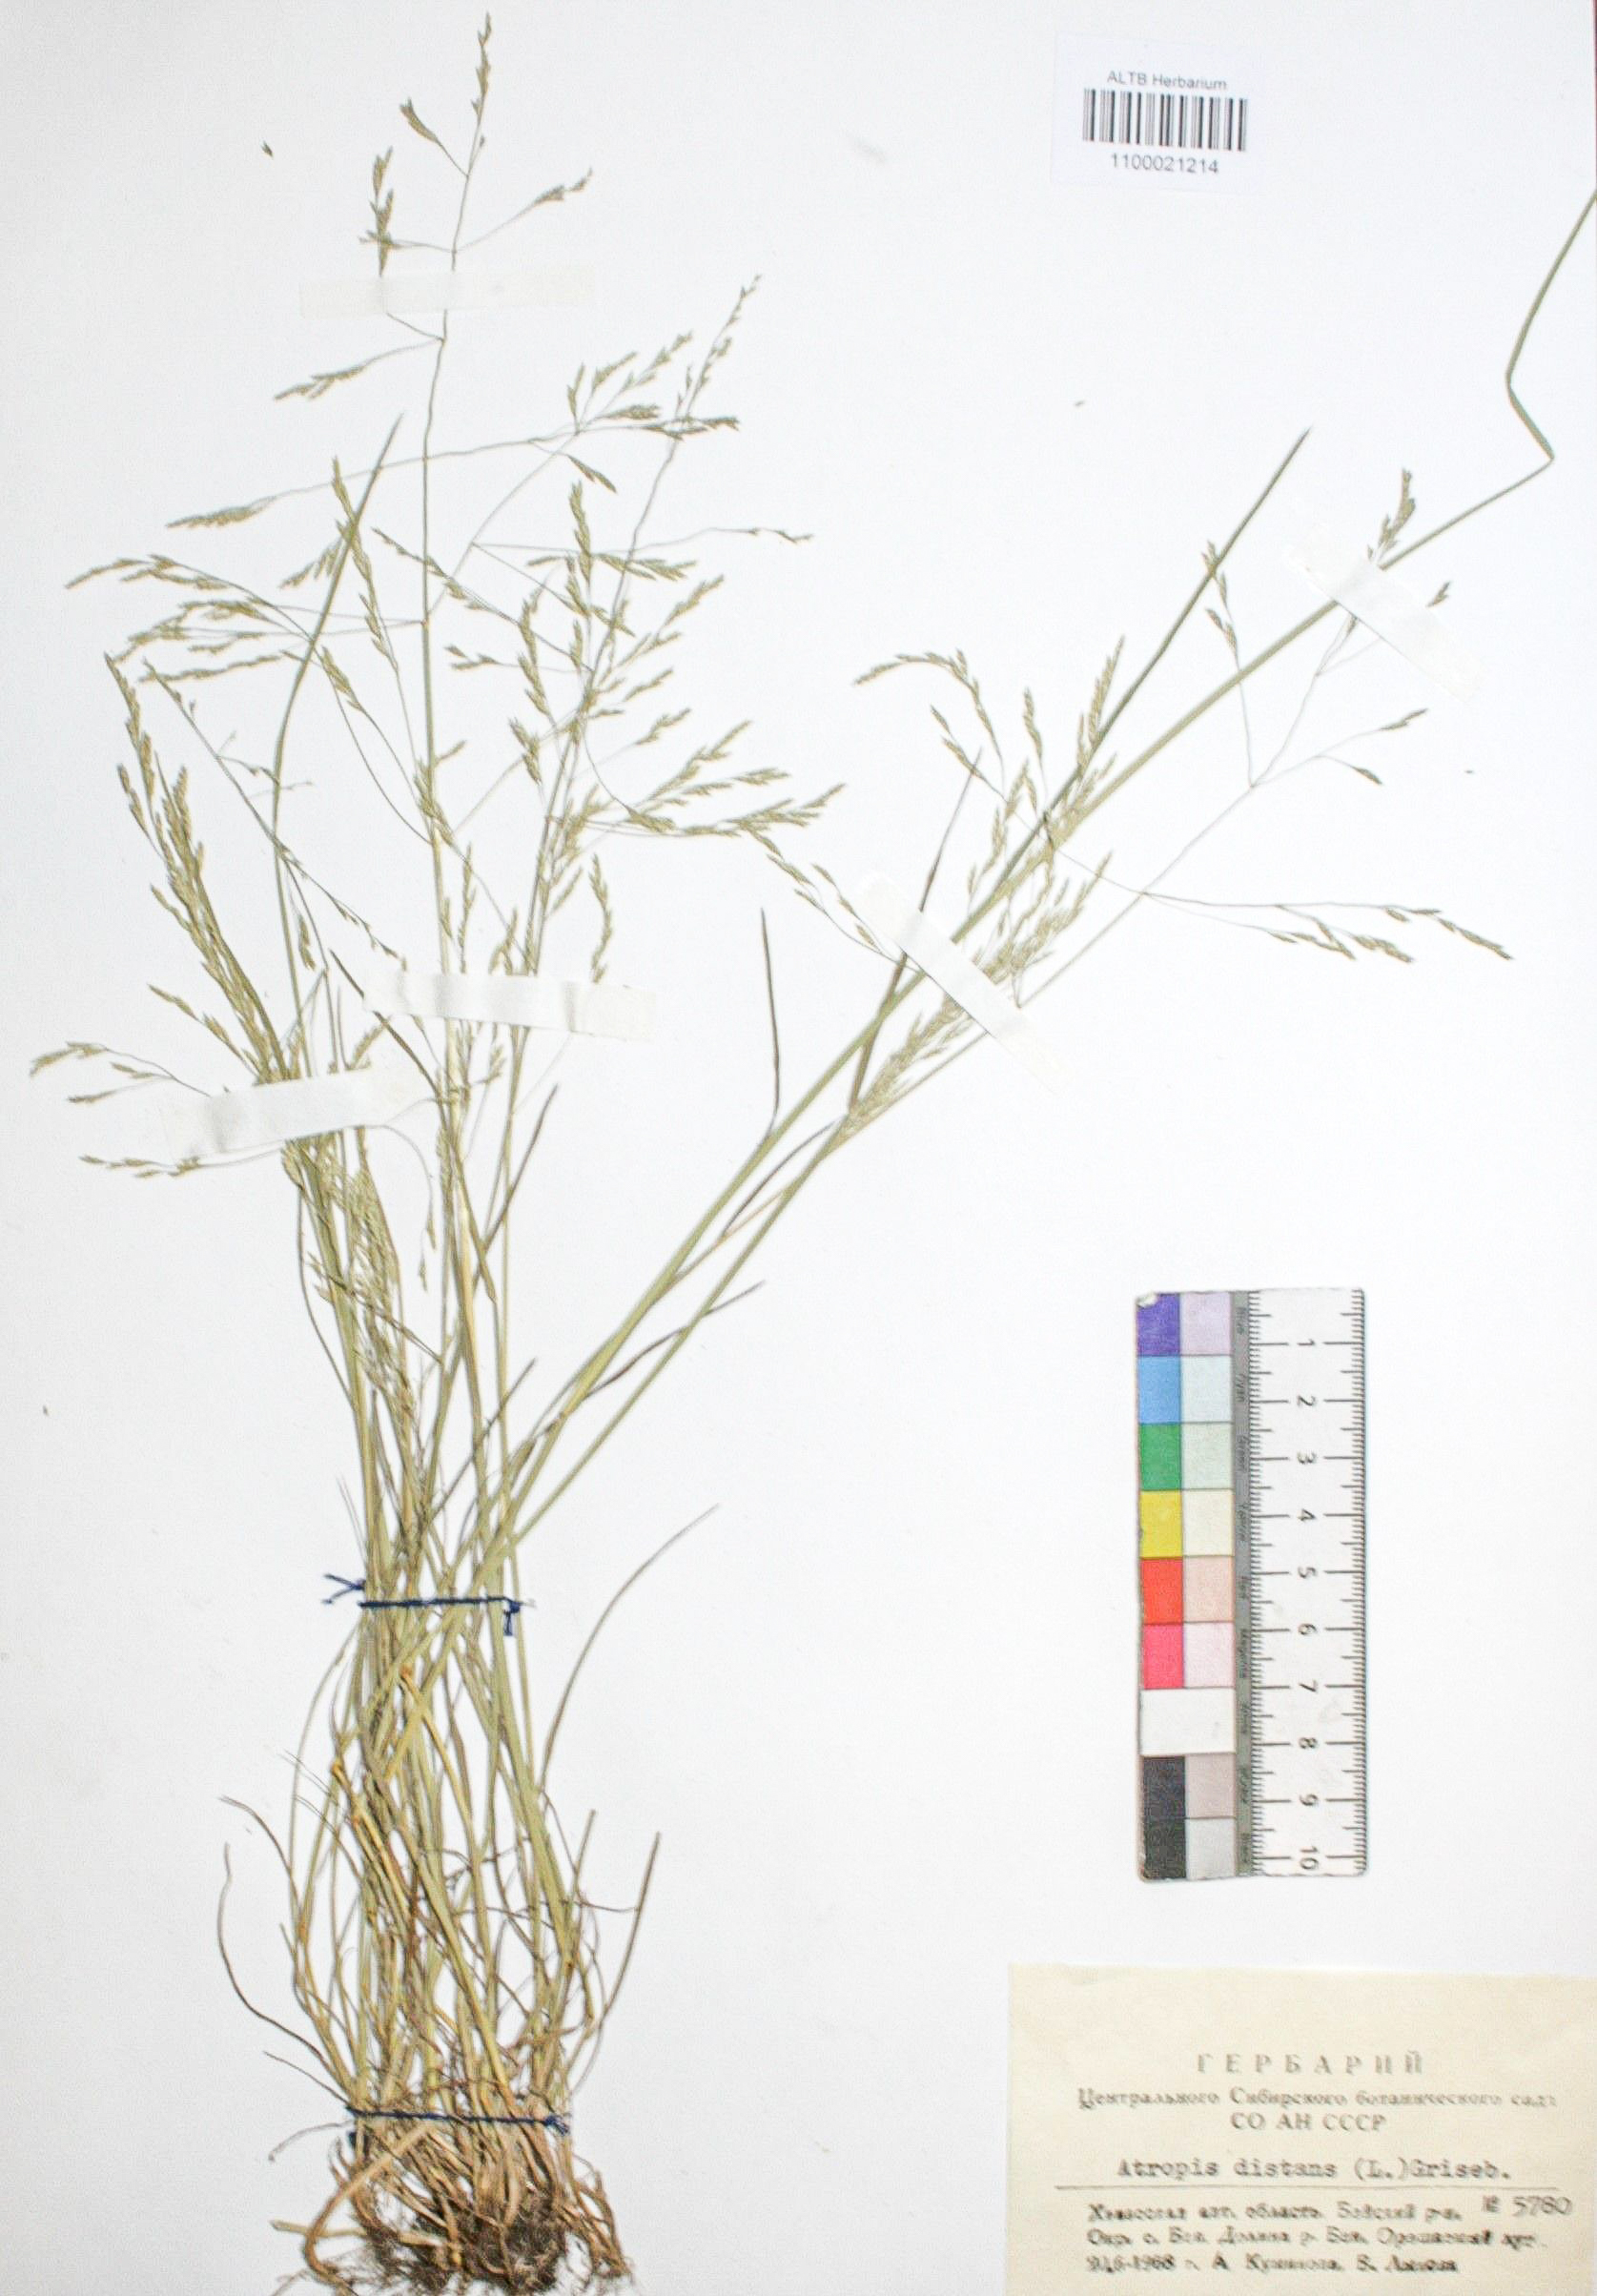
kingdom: Plantae
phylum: Tracheophyta
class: Liliopsida
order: Poales
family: Poaceae
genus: Puccinellia
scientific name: Puccinellia distans
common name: Weeping alkaligrass
